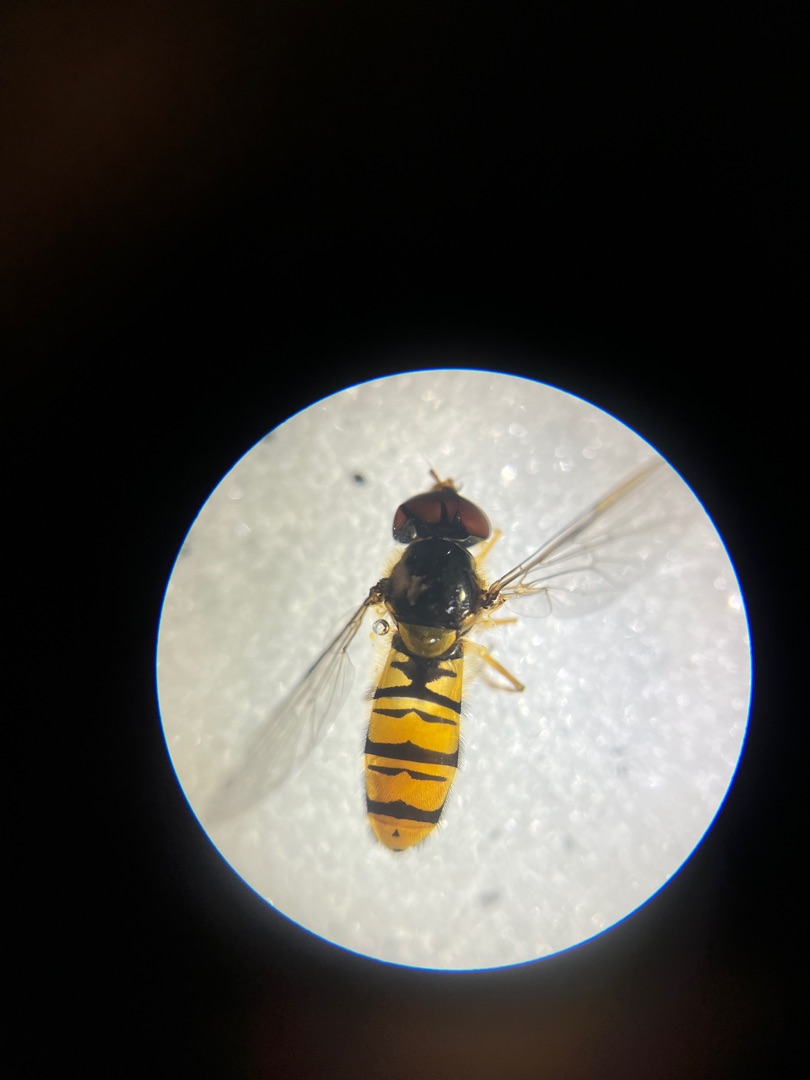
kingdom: Animalia
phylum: Arthropoda
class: Insecta
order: Diptera
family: Syrphidae
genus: Episyrphus
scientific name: Episyrphus balteatus
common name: Dobbeltbåndet svirreflue
